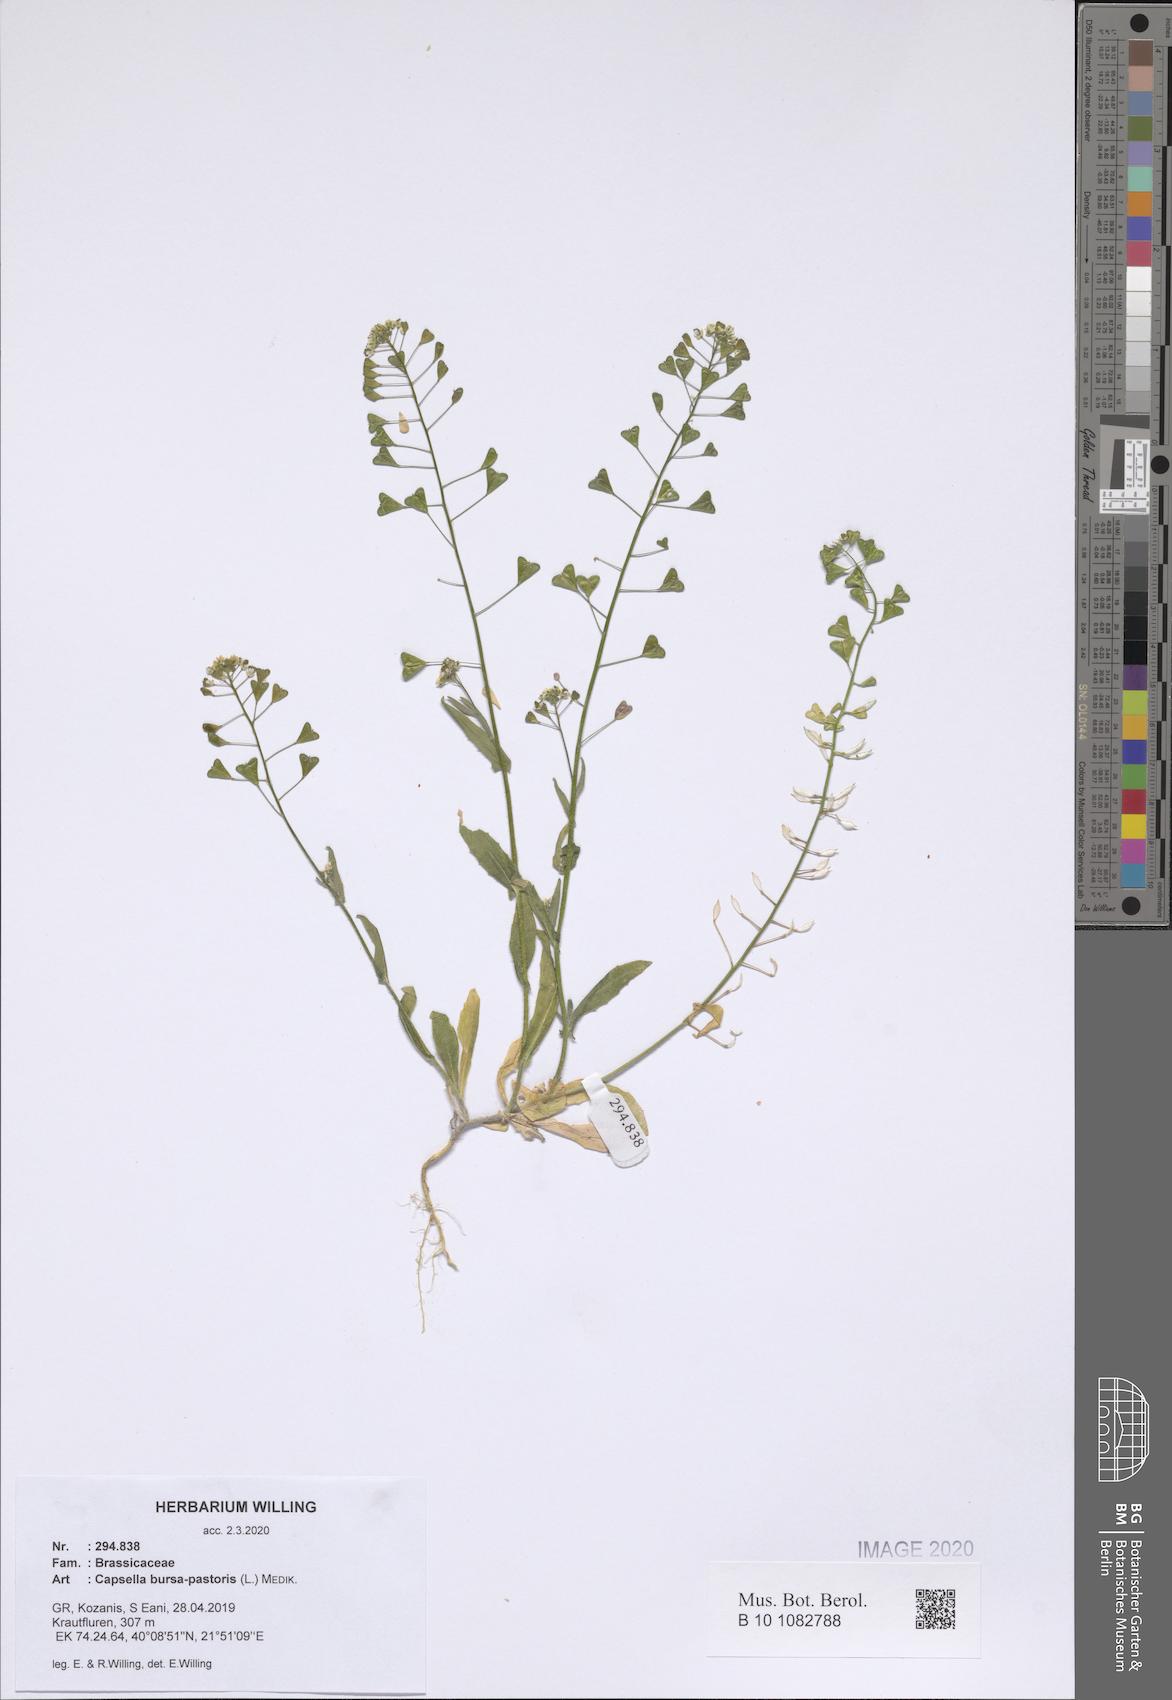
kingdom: Plantae
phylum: Tracheophyta
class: Magnoliopsida
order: Brassicales
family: Brassicaceae
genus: Capsella
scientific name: Capsella bursa-pastoris
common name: Shepherd's purse
